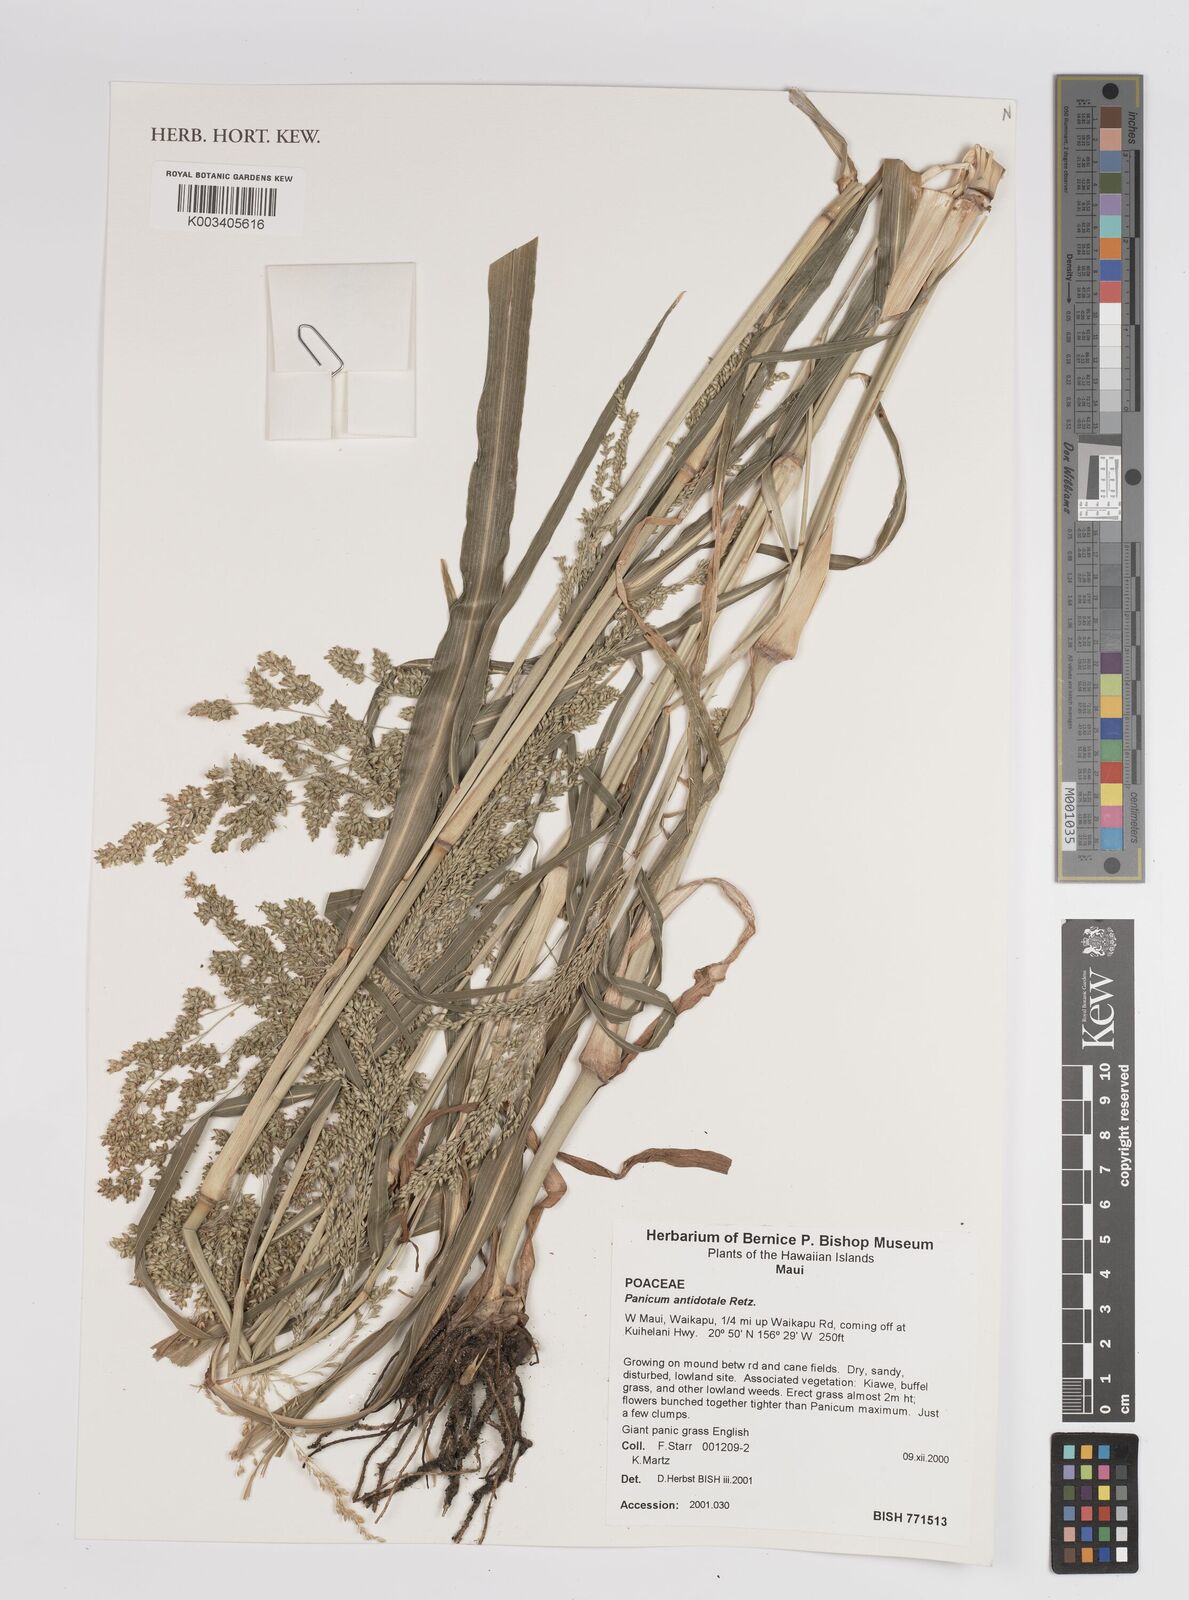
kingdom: Plantae
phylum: Tracheophyta
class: Liliopsida
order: Poales
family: Poaceae
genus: Panicum
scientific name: Panicum antidotale
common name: Blue panicum
